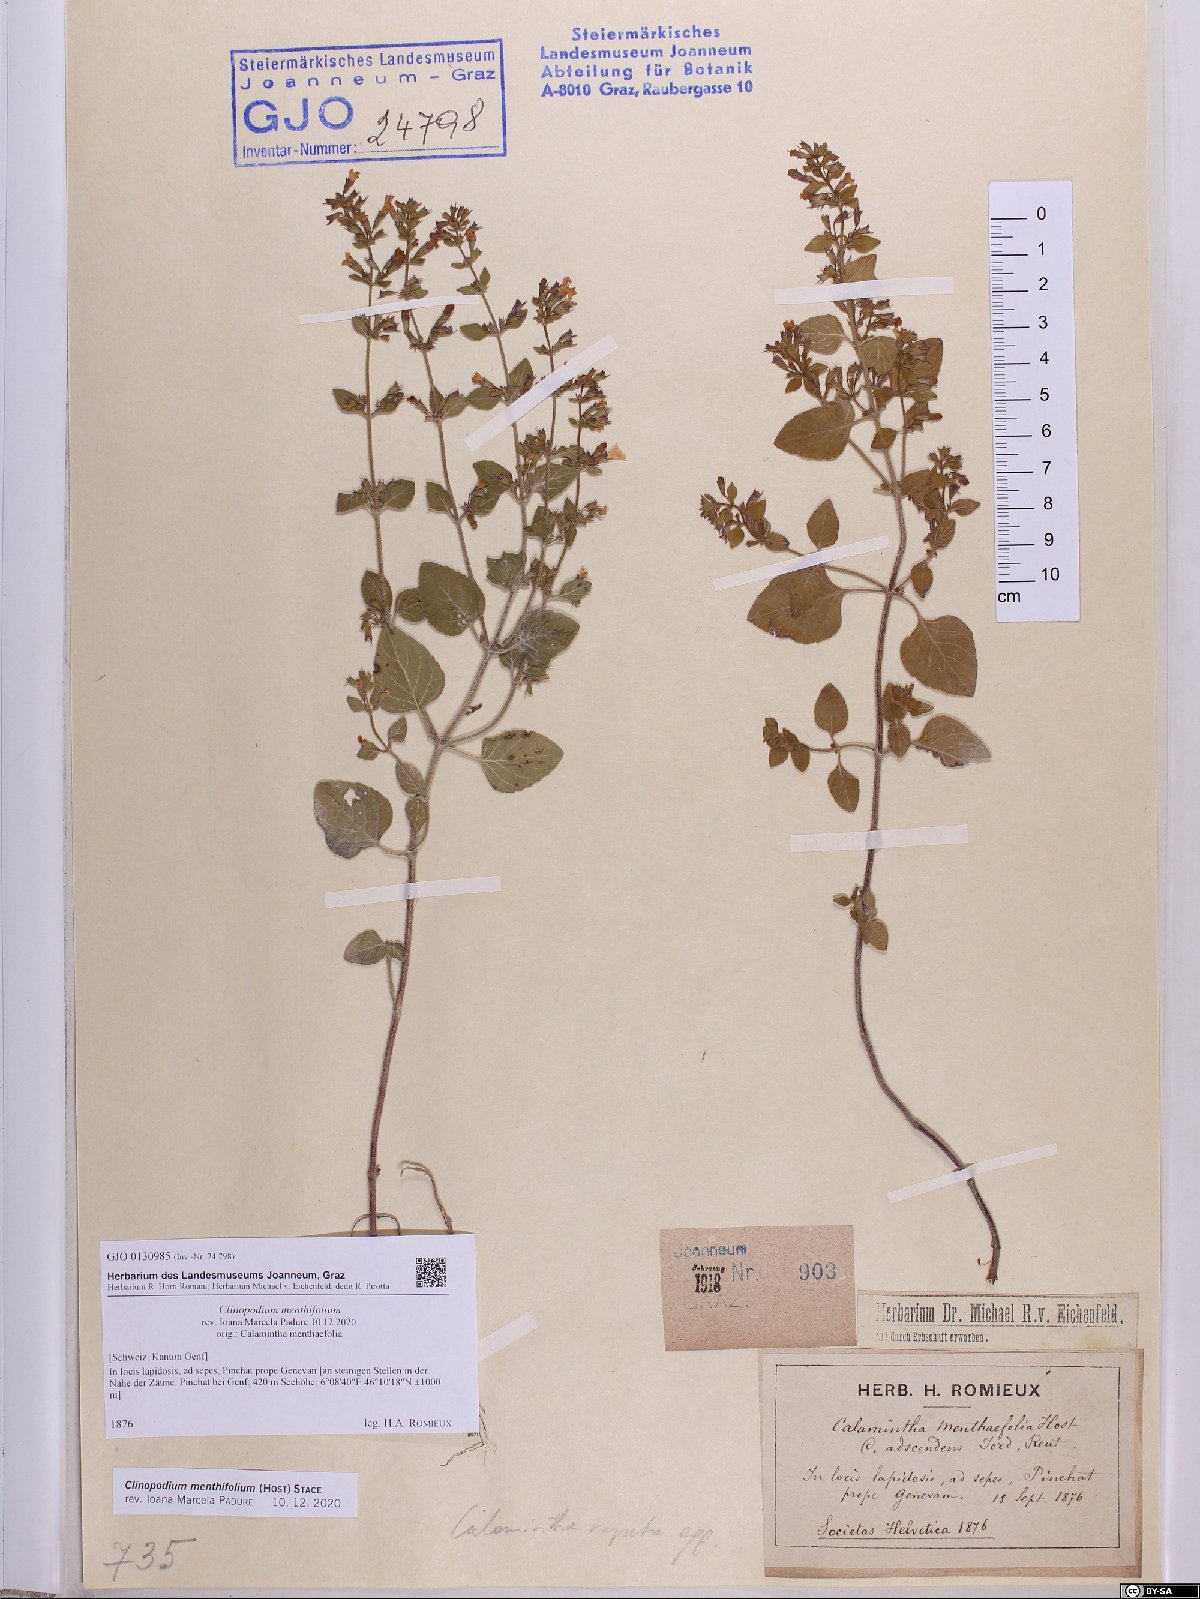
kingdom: Plantae
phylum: Tracheophyta
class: Magnoliopsida
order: Lamiales
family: Lamiaceae
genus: Clinopodium
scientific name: Clinopodium menthifolium
